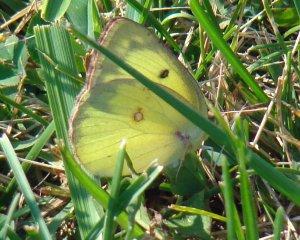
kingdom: Animalia
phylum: Arthropoda
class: Insecta
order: Lepidoptera
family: Pieridae
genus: Colias
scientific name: Colias philodice
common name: Clouded Sulphur
